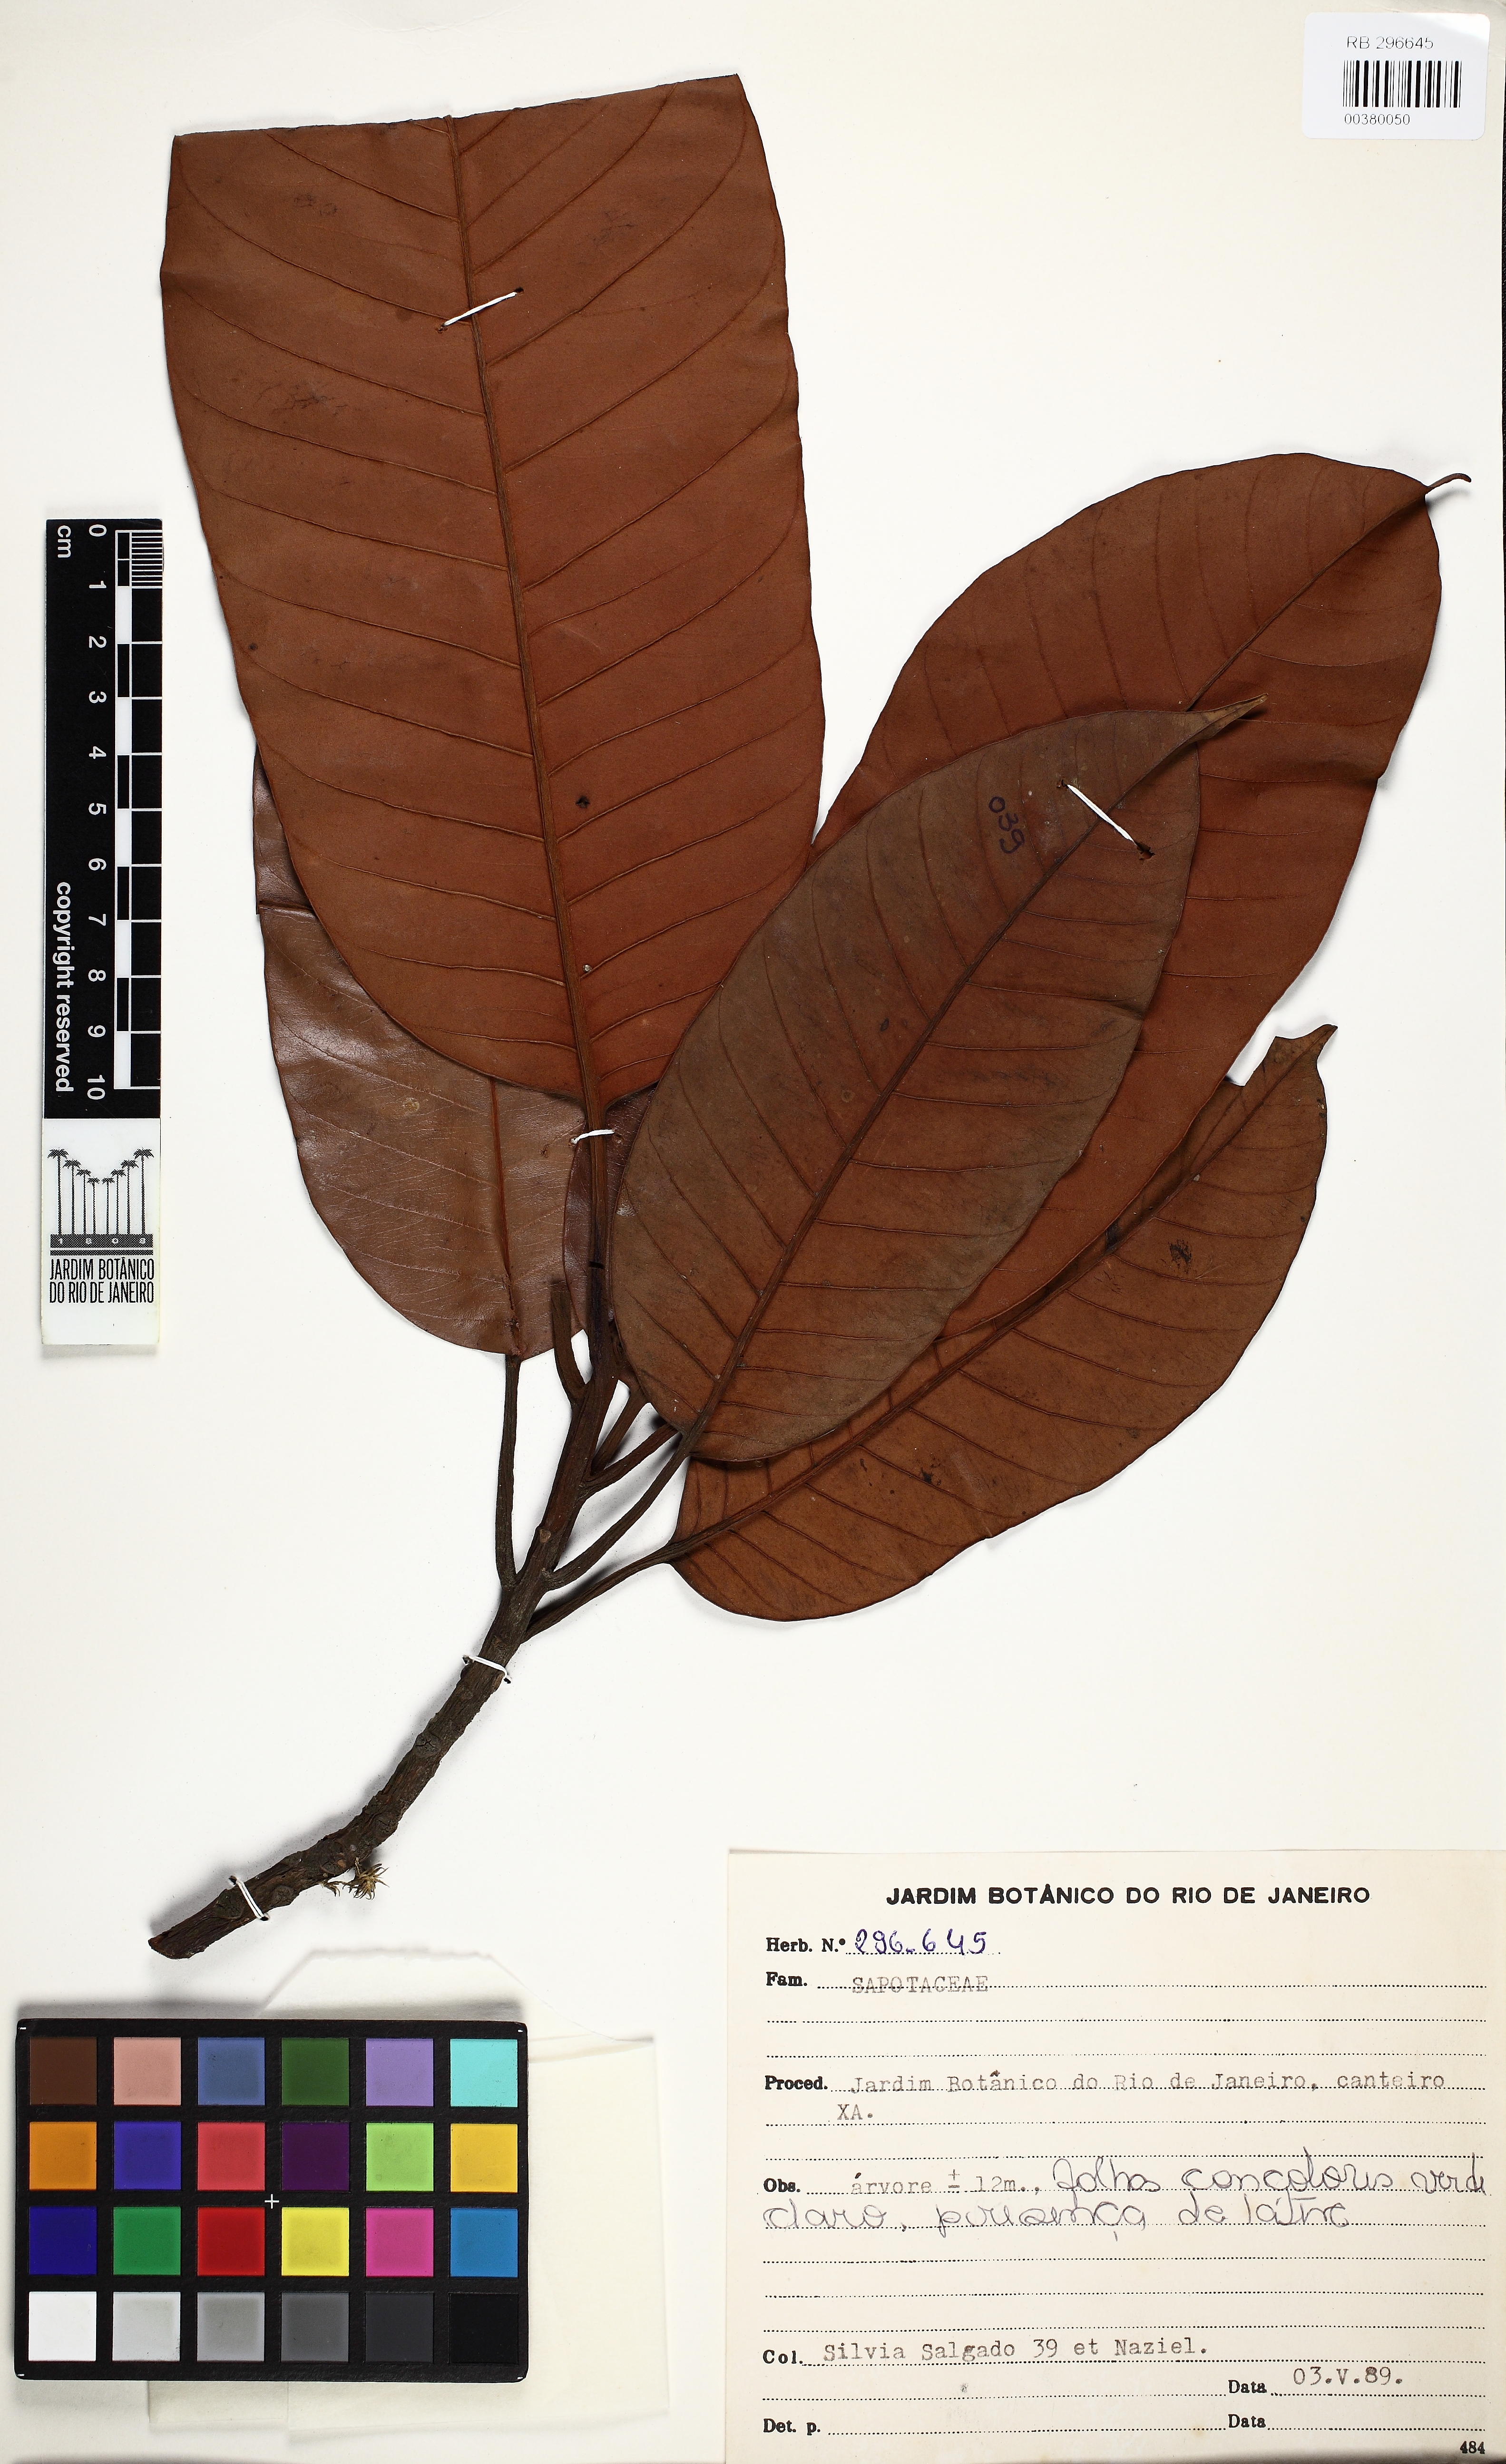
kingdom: Plantae
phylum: Tracheophyta
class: Magnoliopsida
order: Ericales
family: Sapotaceae
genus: Pouteria
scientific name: Pouteria
